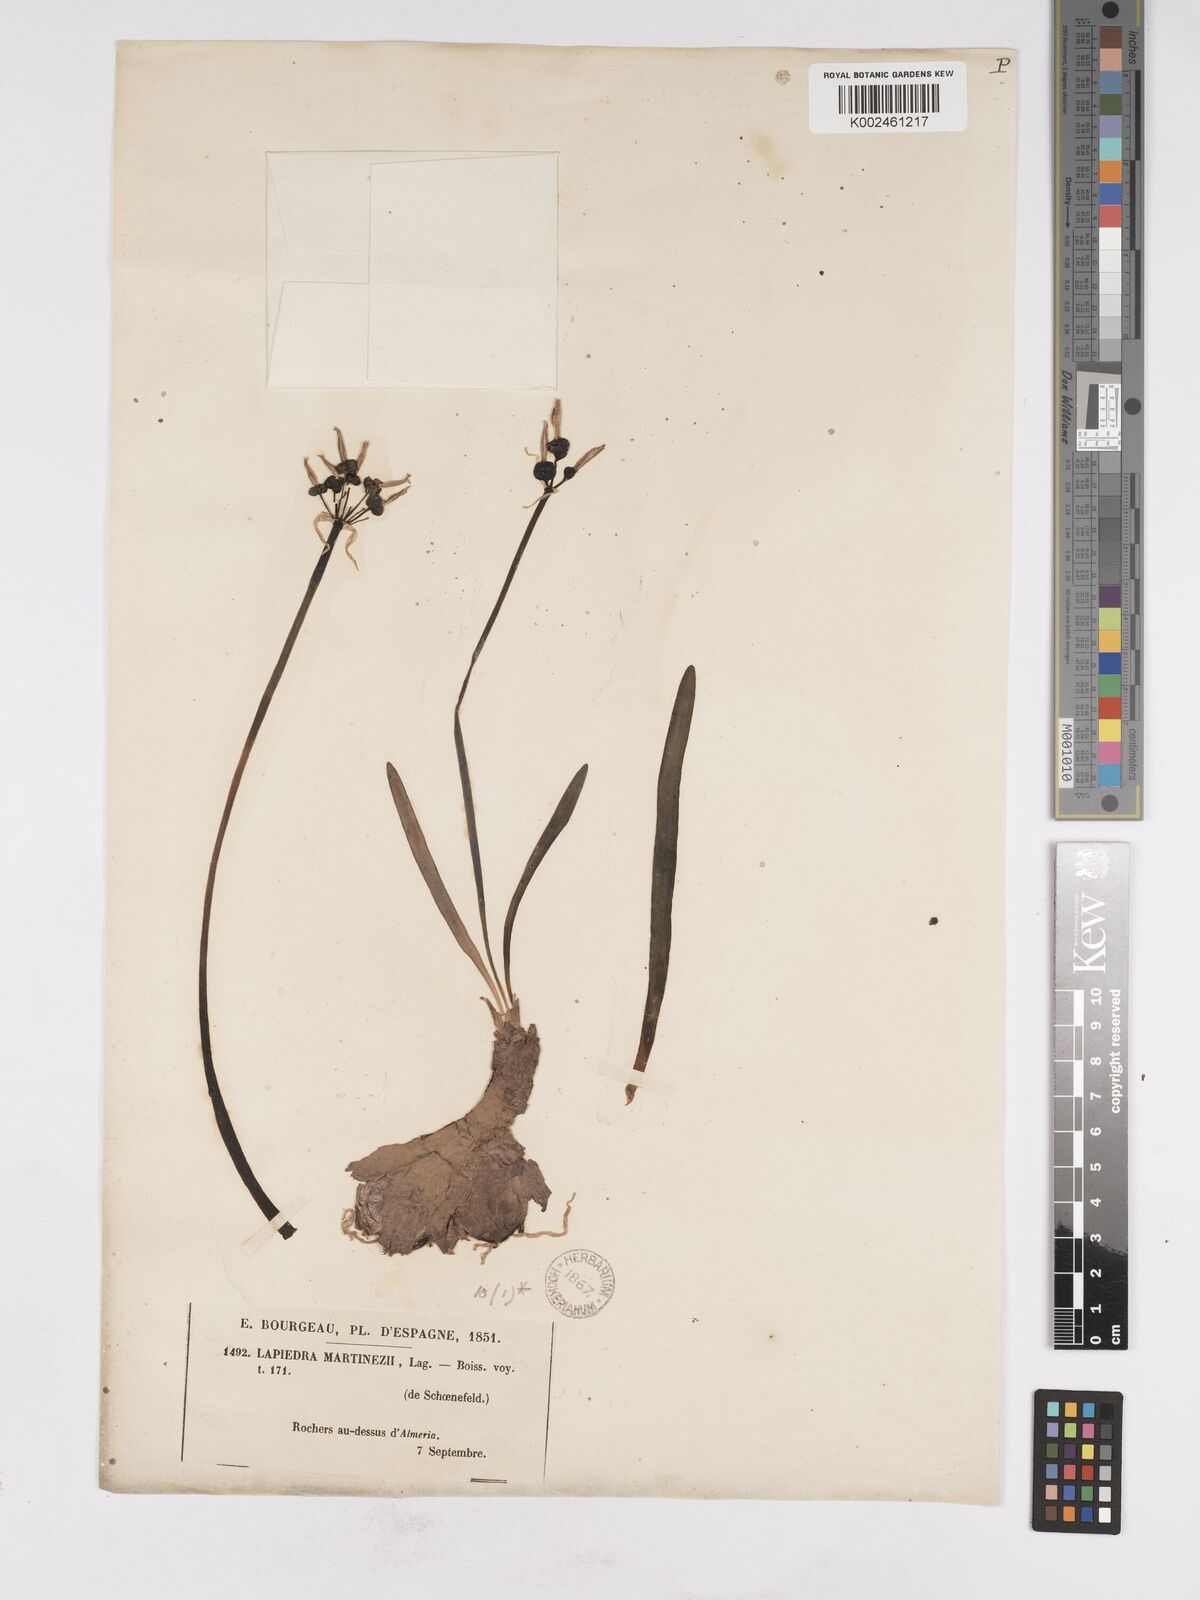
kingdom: Plantae
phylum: Tracheophyta
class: Liliopsida
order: Asparagales
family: Amaryllidaceae
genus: Lapiedra
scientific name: Lapiedra martinezii
